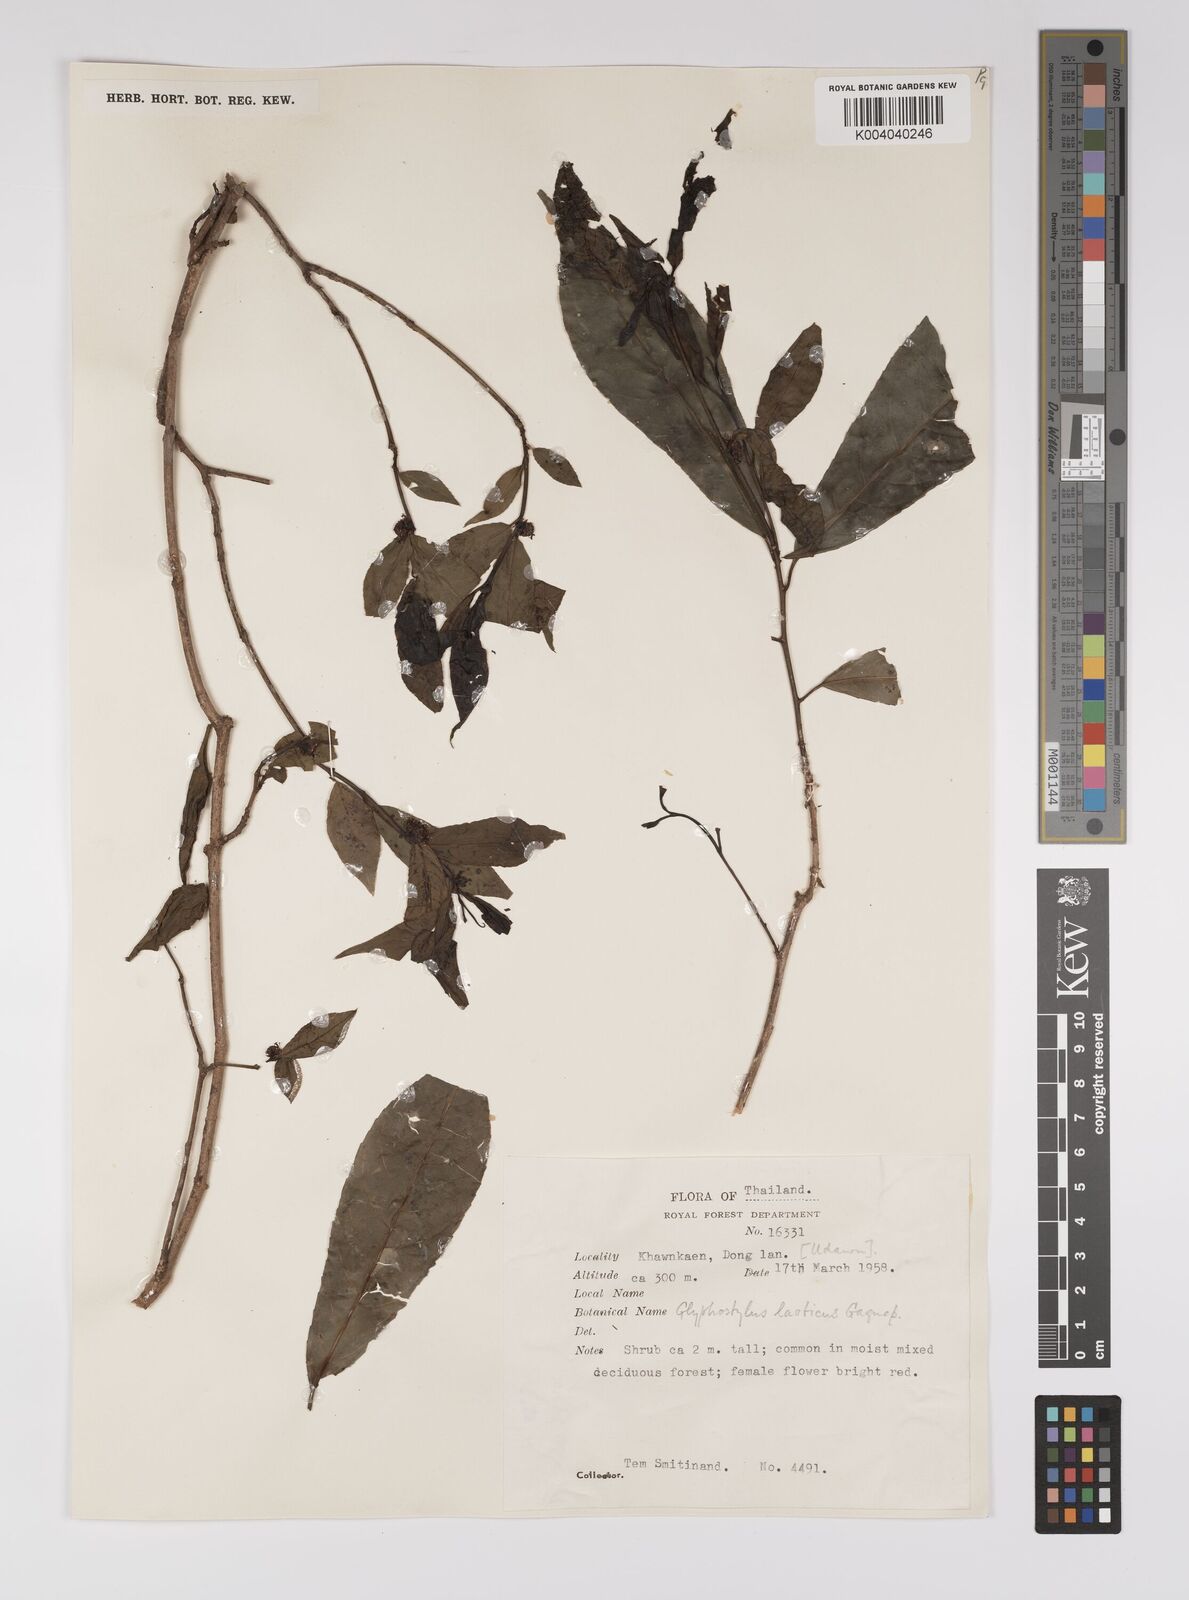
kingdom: Plantae
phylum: Tracheophyta
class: Magnoliopsida
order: Malpighiales
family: Euphorbiaceae
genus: Excoecaria
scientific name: Excoecaria laotica
